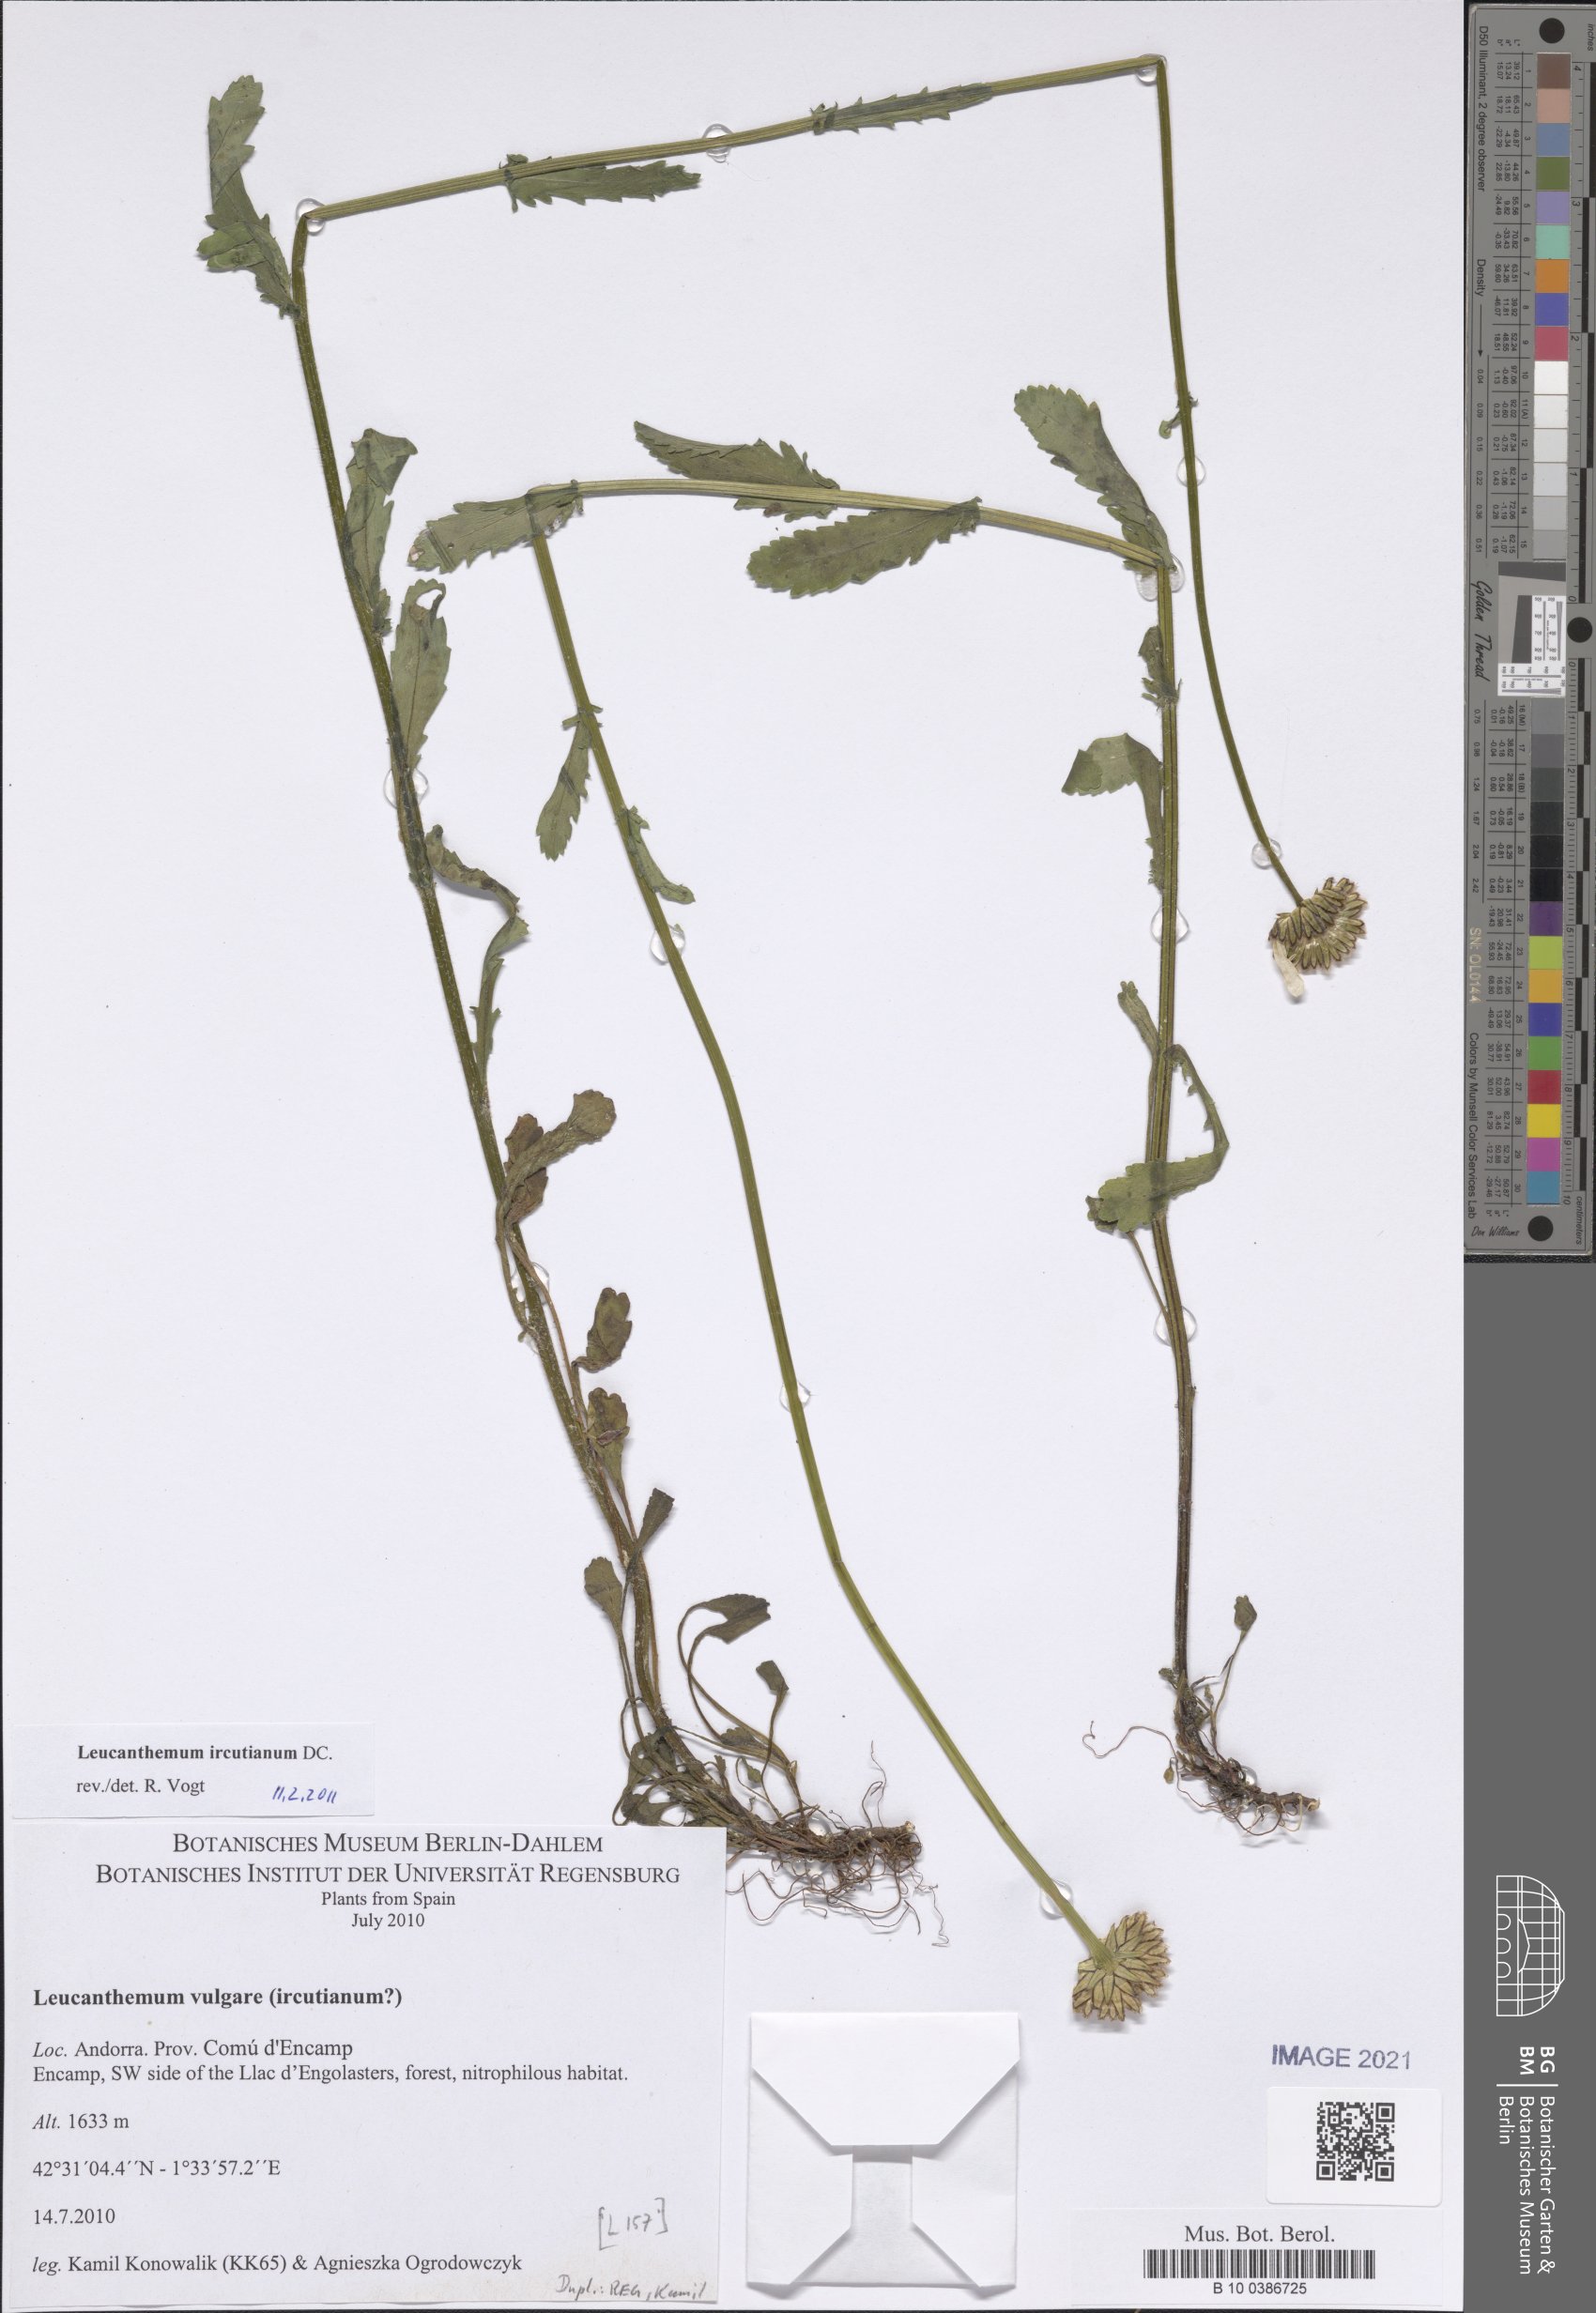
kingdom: Plantae
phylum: Tracheophyta
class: Magnoliopsida
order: Asterales
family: Asteraceae
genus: Leucanthemum
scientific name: Leucanthemum ircutianum
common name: Daisy
